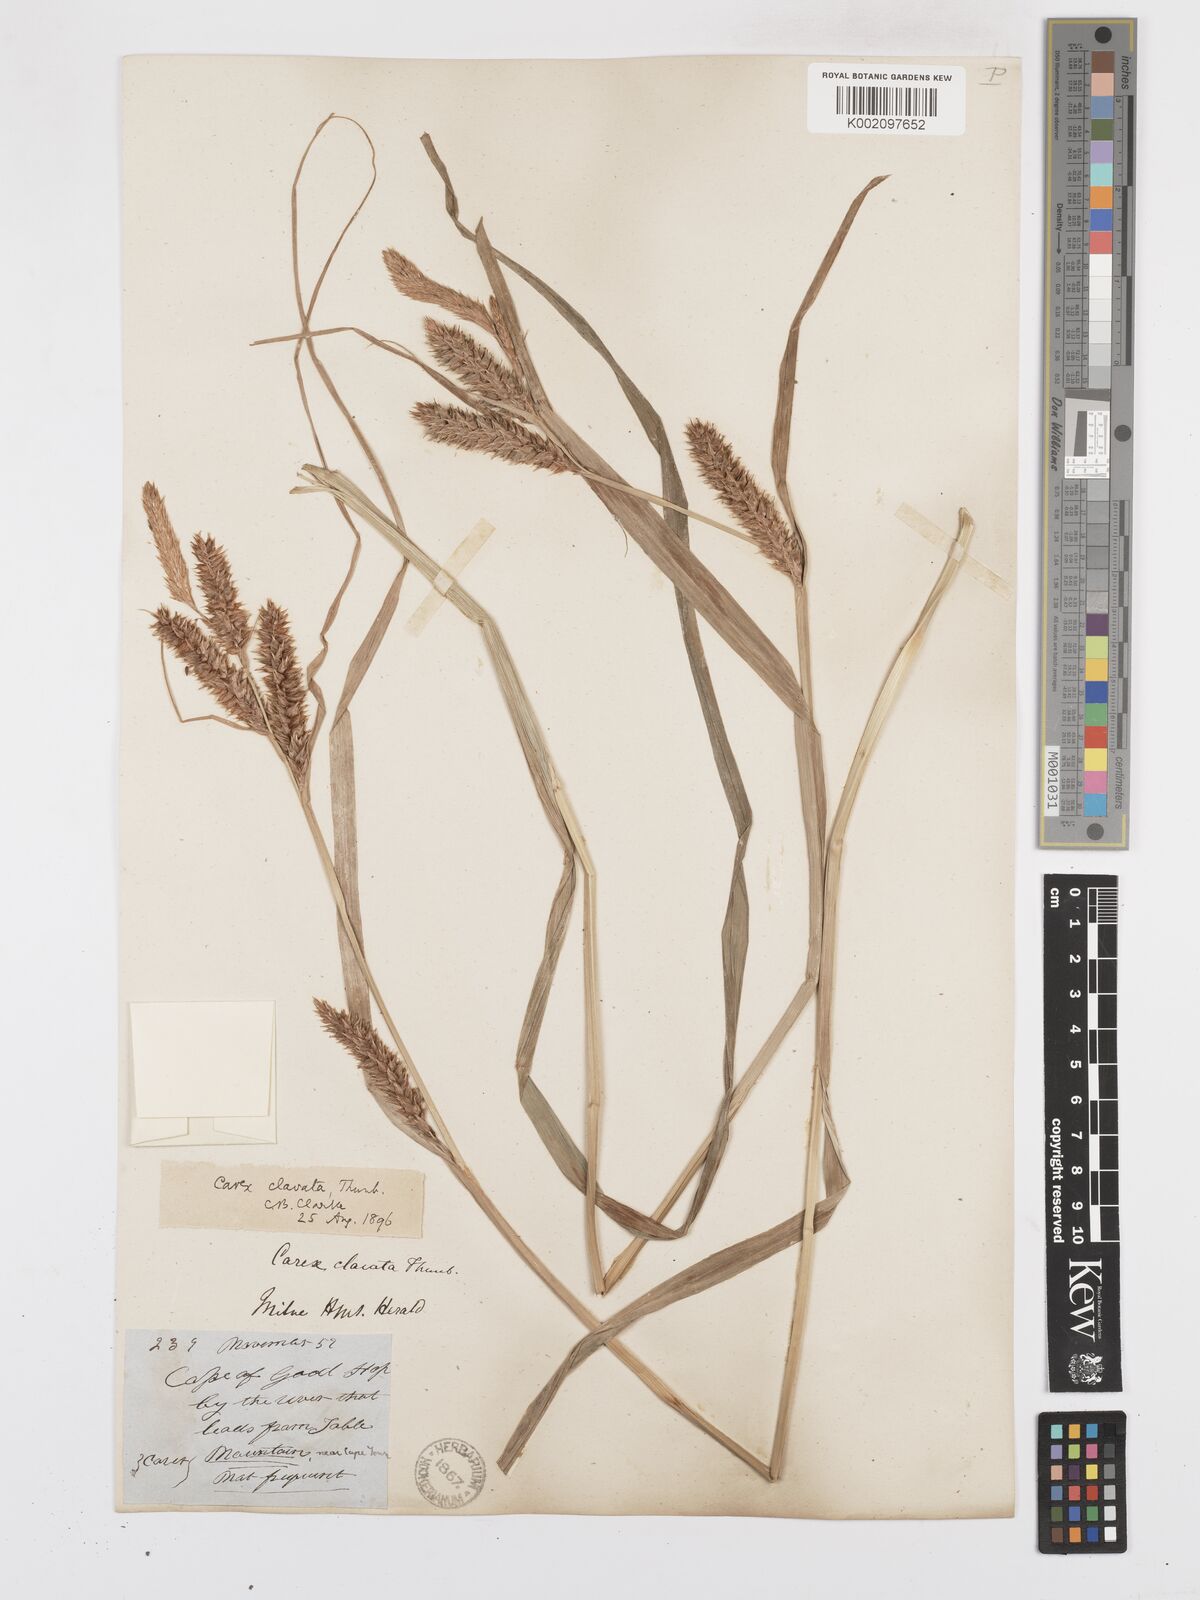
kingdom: Plantae
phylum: Tracheophyta
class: Liliopsida
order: Poales
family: Cyperaceae
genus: Carex
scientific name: Carex clavata
